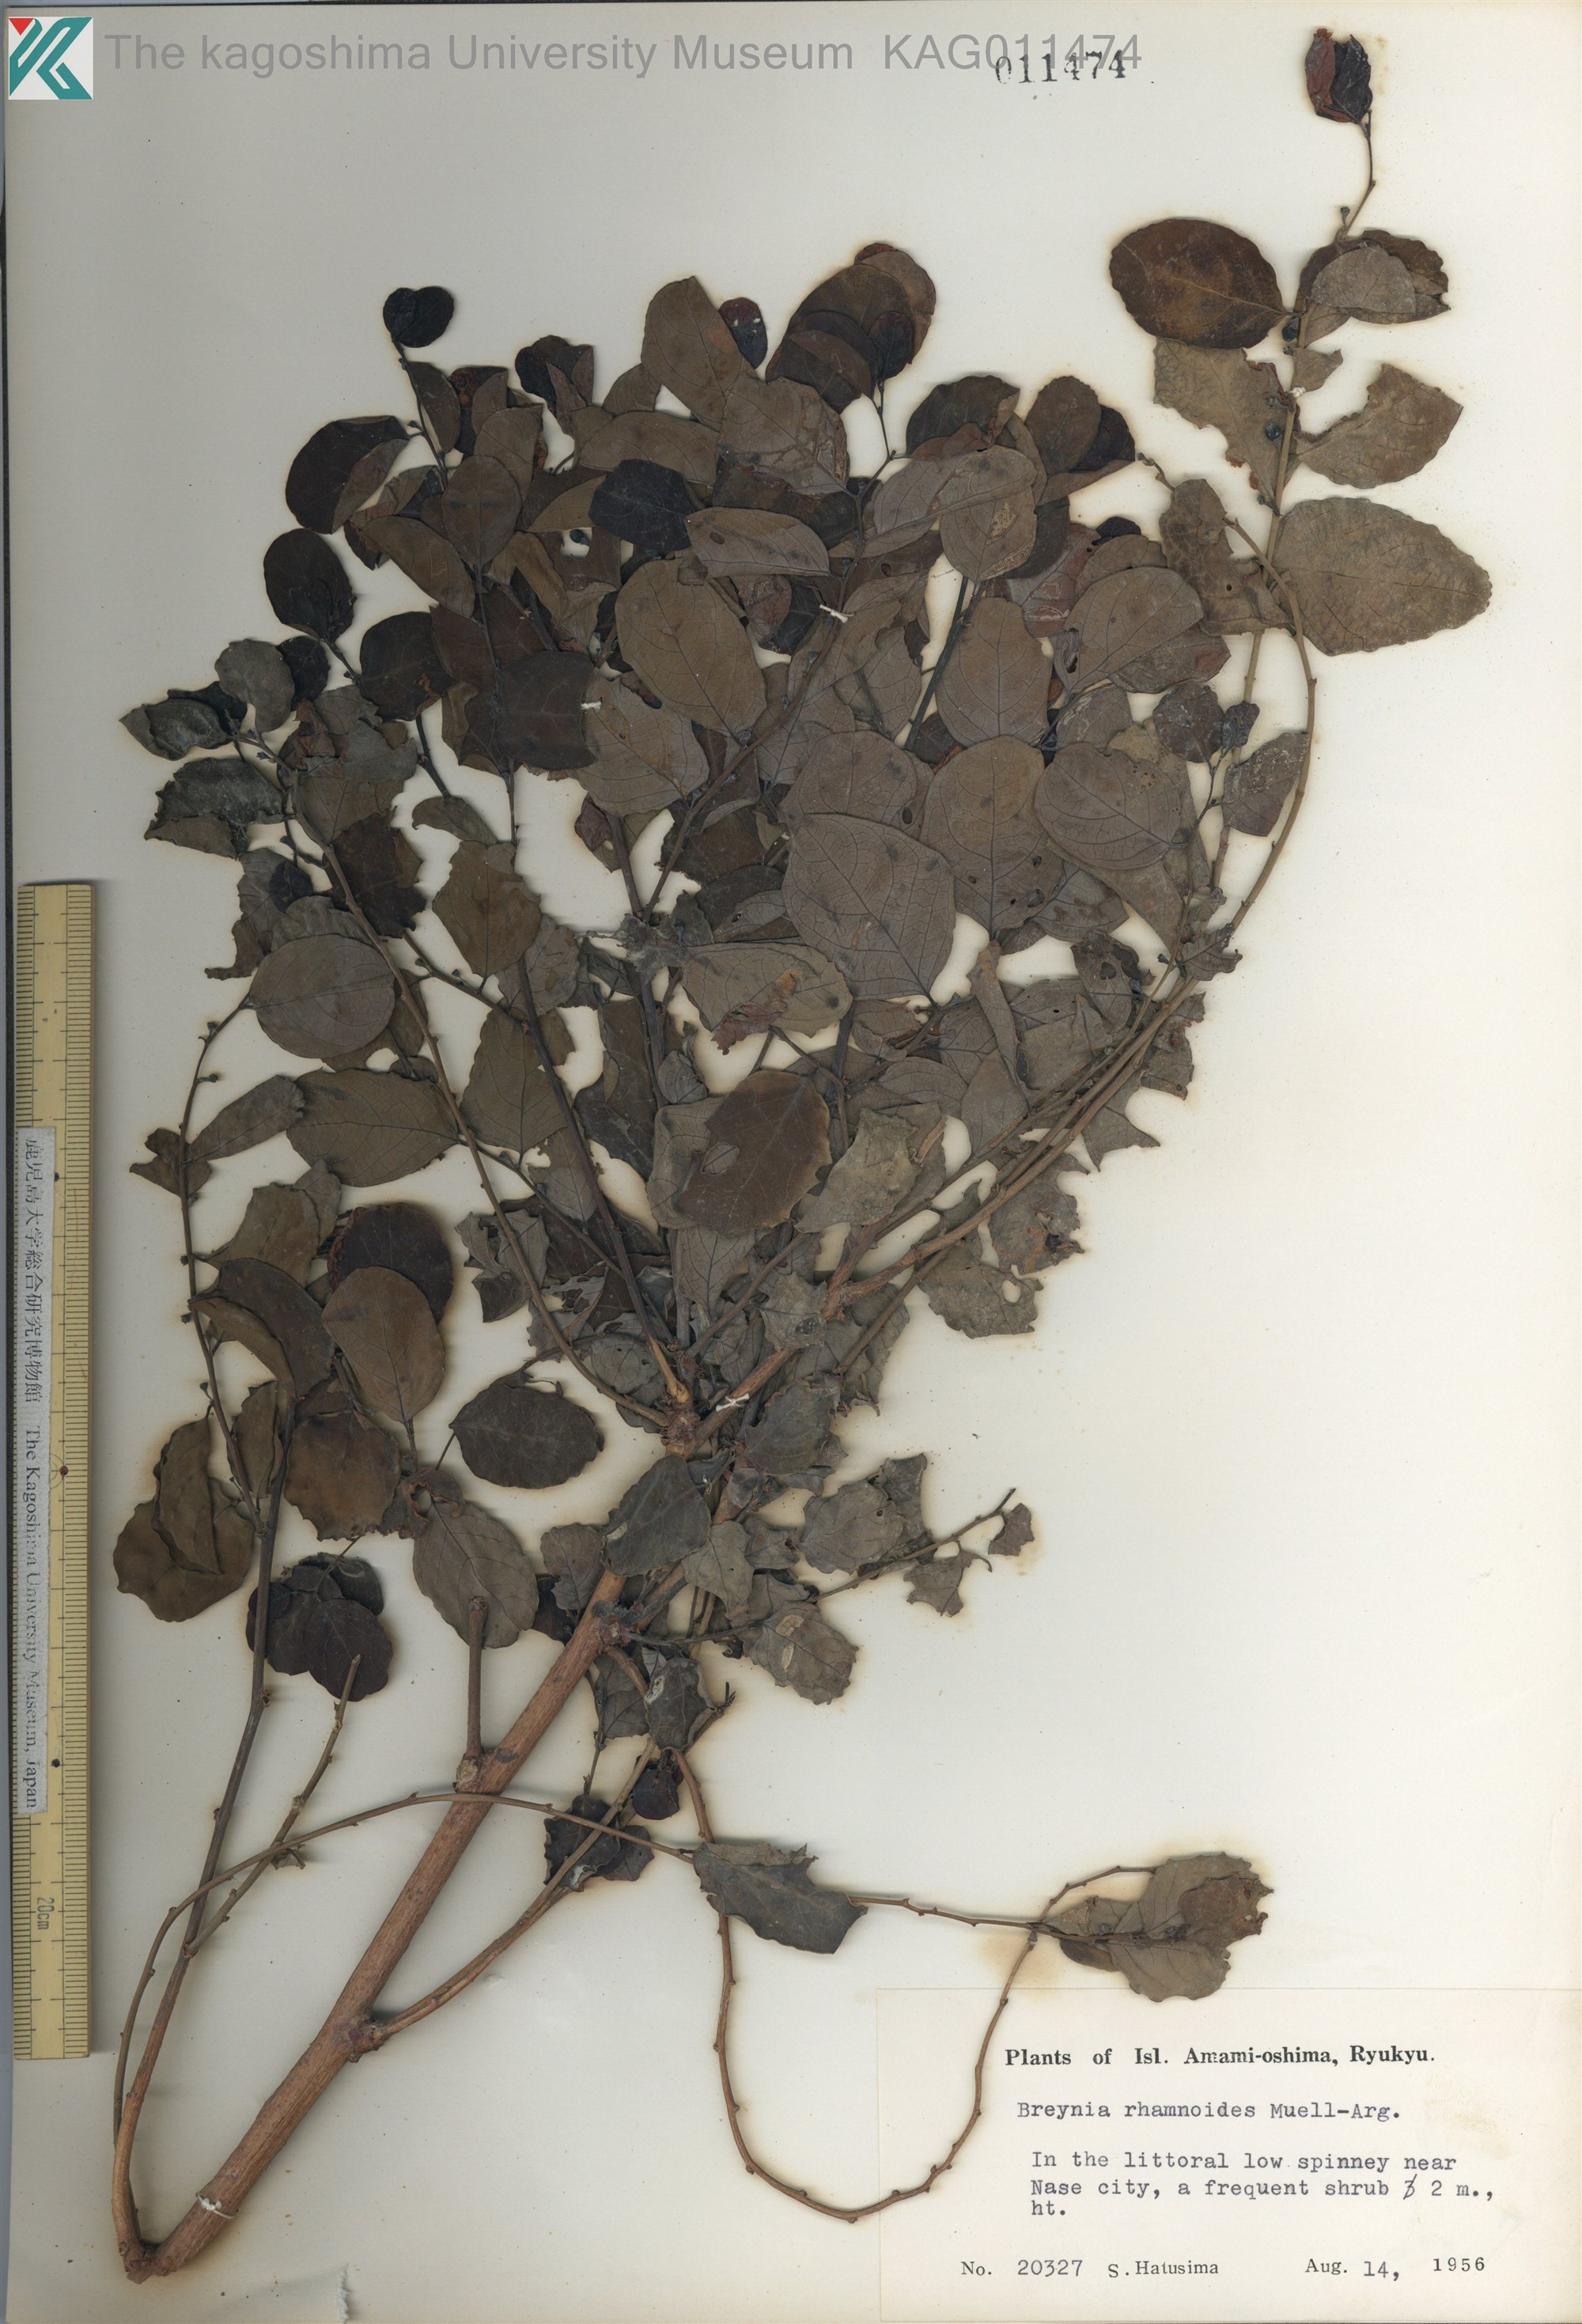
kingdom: Plantae
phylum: Tracheophyta
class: Magnoliopsida
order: Malpighiales
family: Phyllanthaceae
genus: Breynia
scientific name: Breynia vitis-idaea
